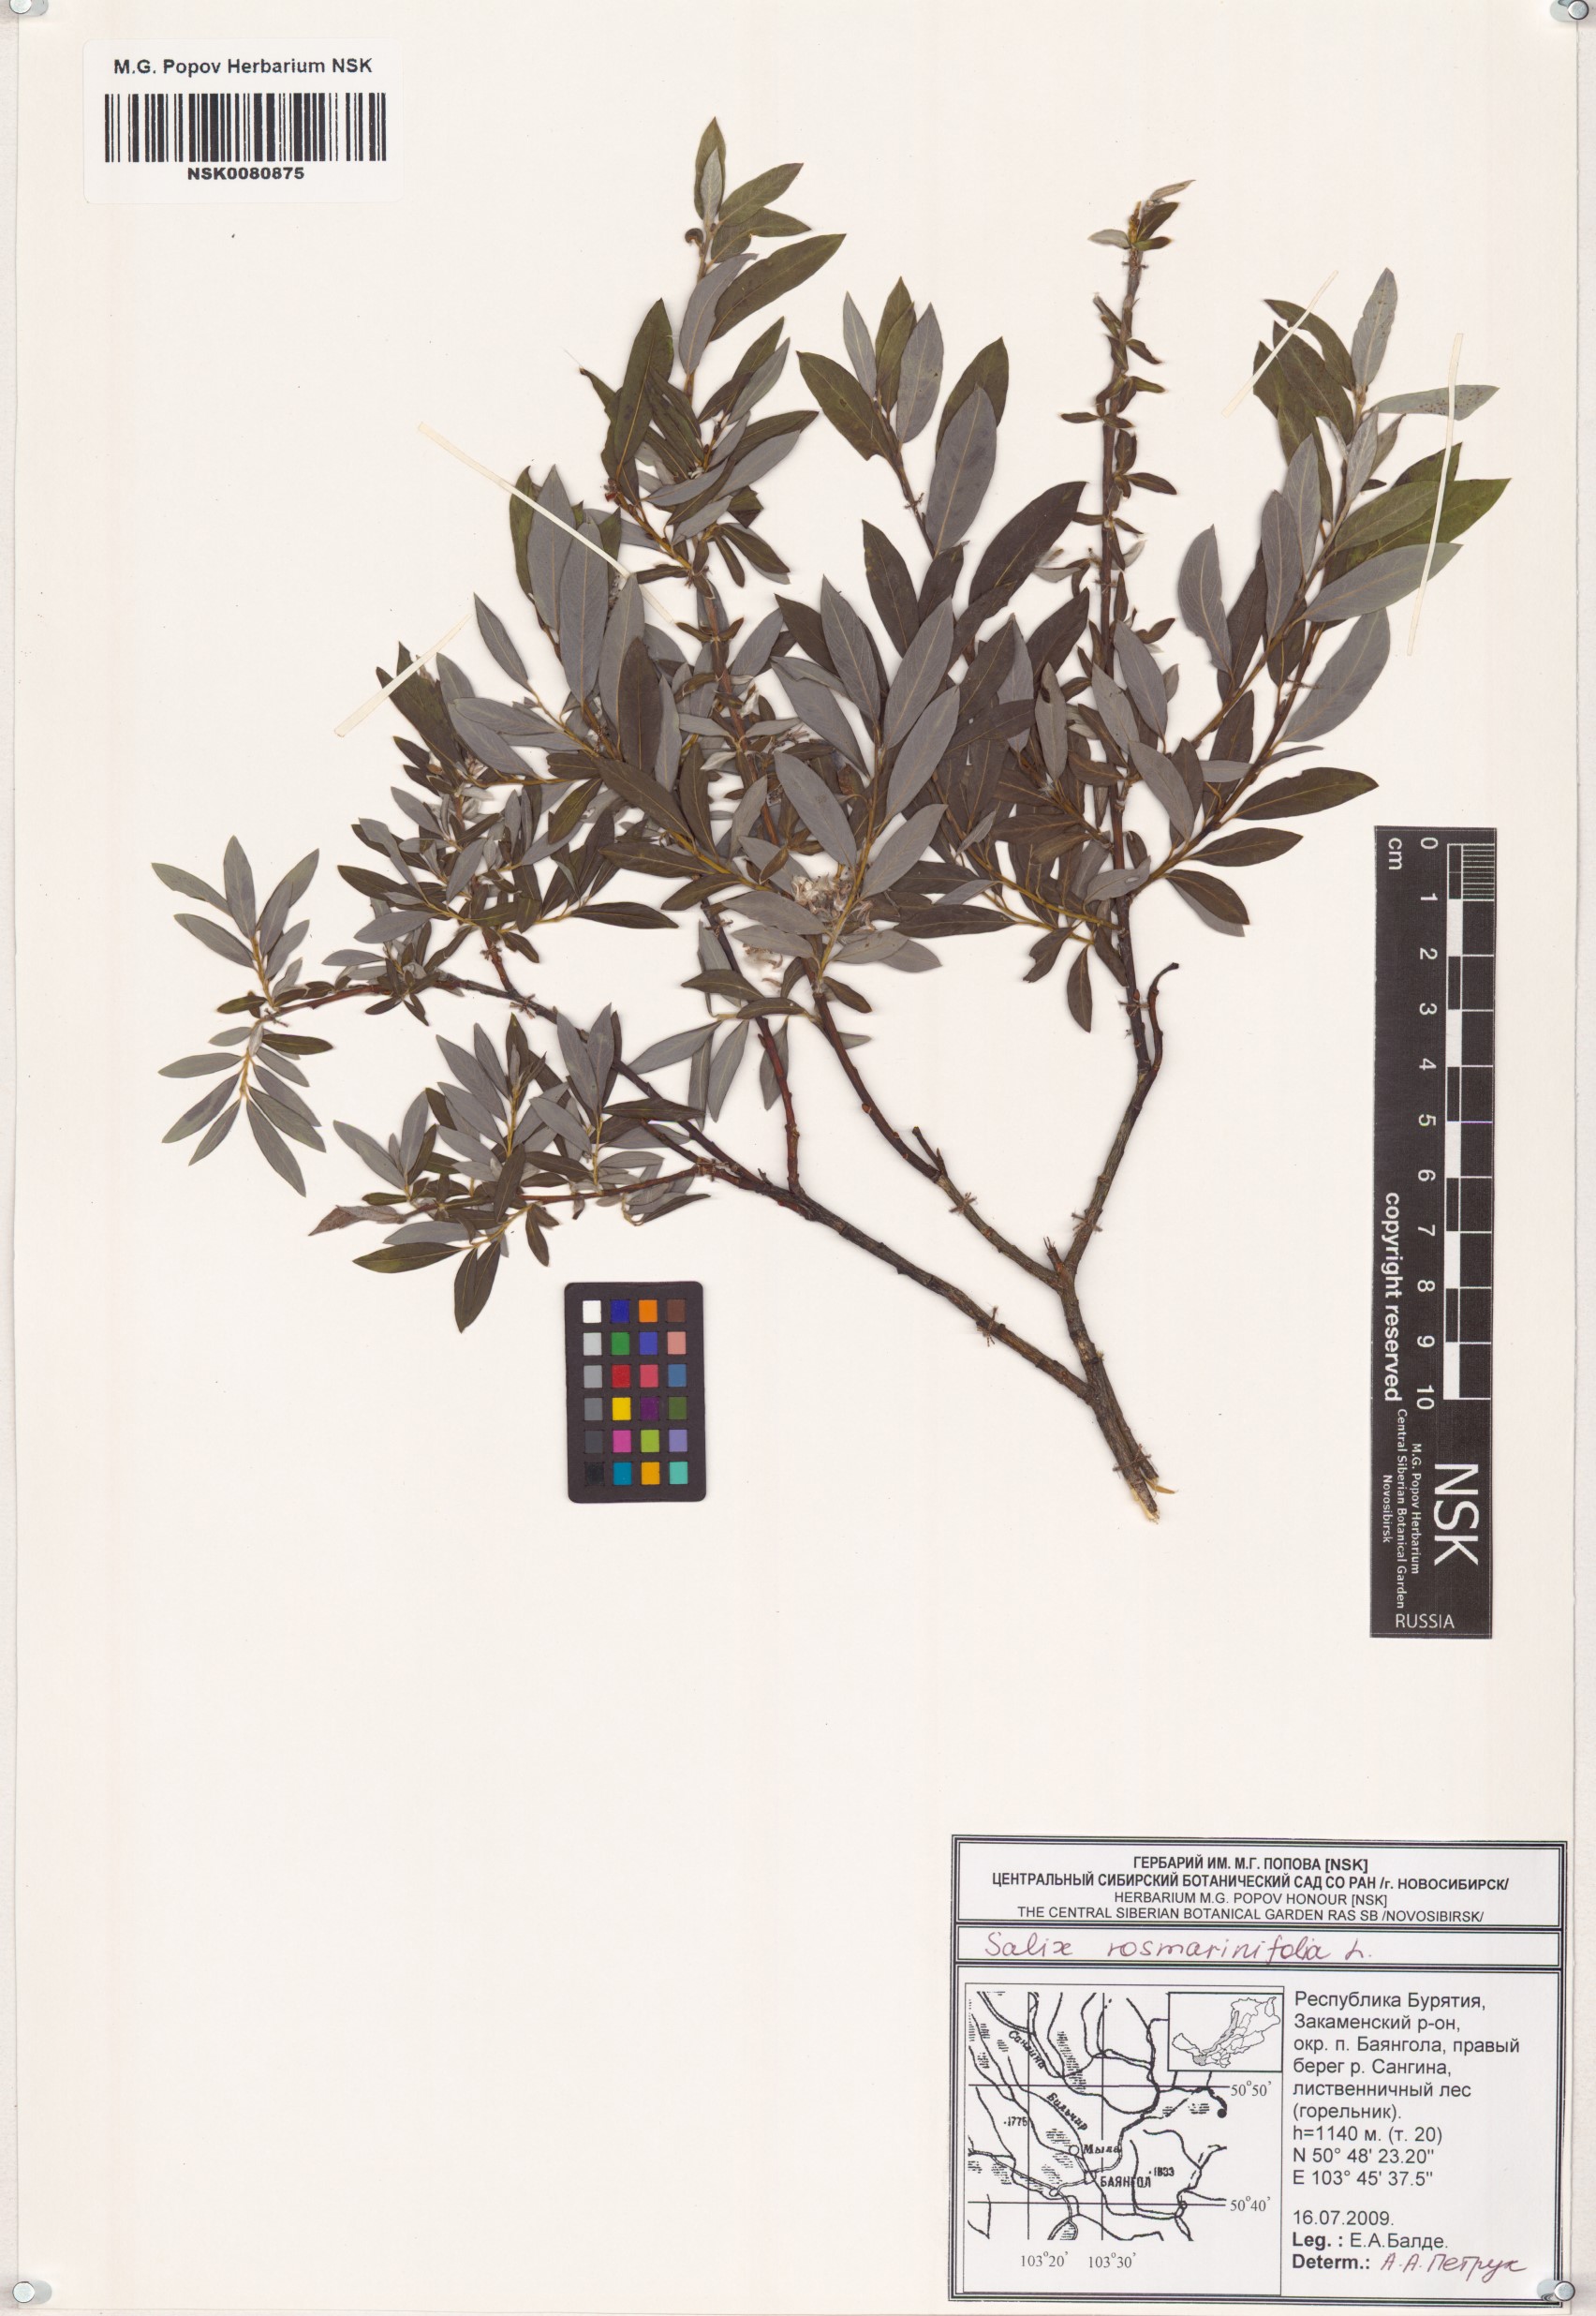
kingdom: Plantae
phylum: Tracheophyta
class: Magnoliopsida
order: Malpighiales
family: Salicaceae
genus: Salix
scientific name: Salix rosmarinifolia
